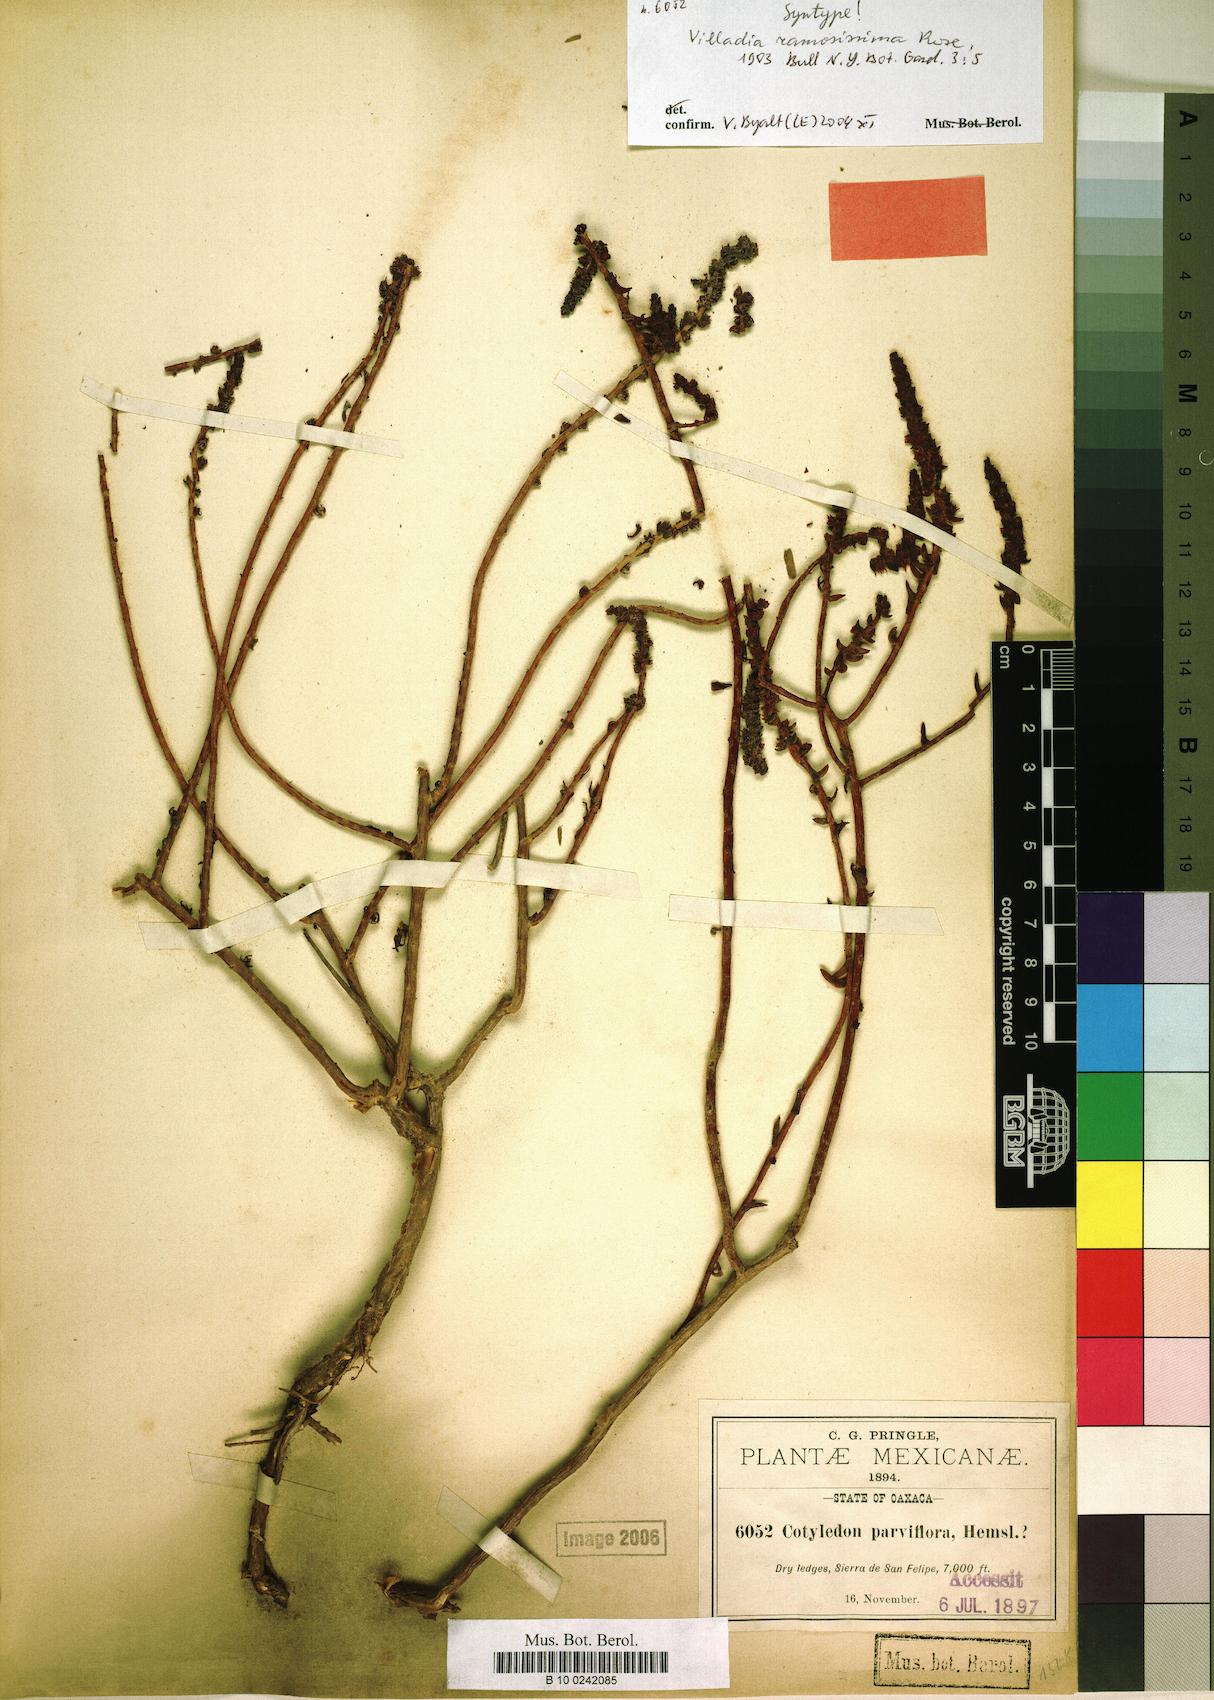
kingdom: Plantae
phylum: Tracheophyta
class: Magnoliopsida
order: Saxifragales
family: Crassulaceae
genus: Villadia
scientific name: Villadia albiflora
